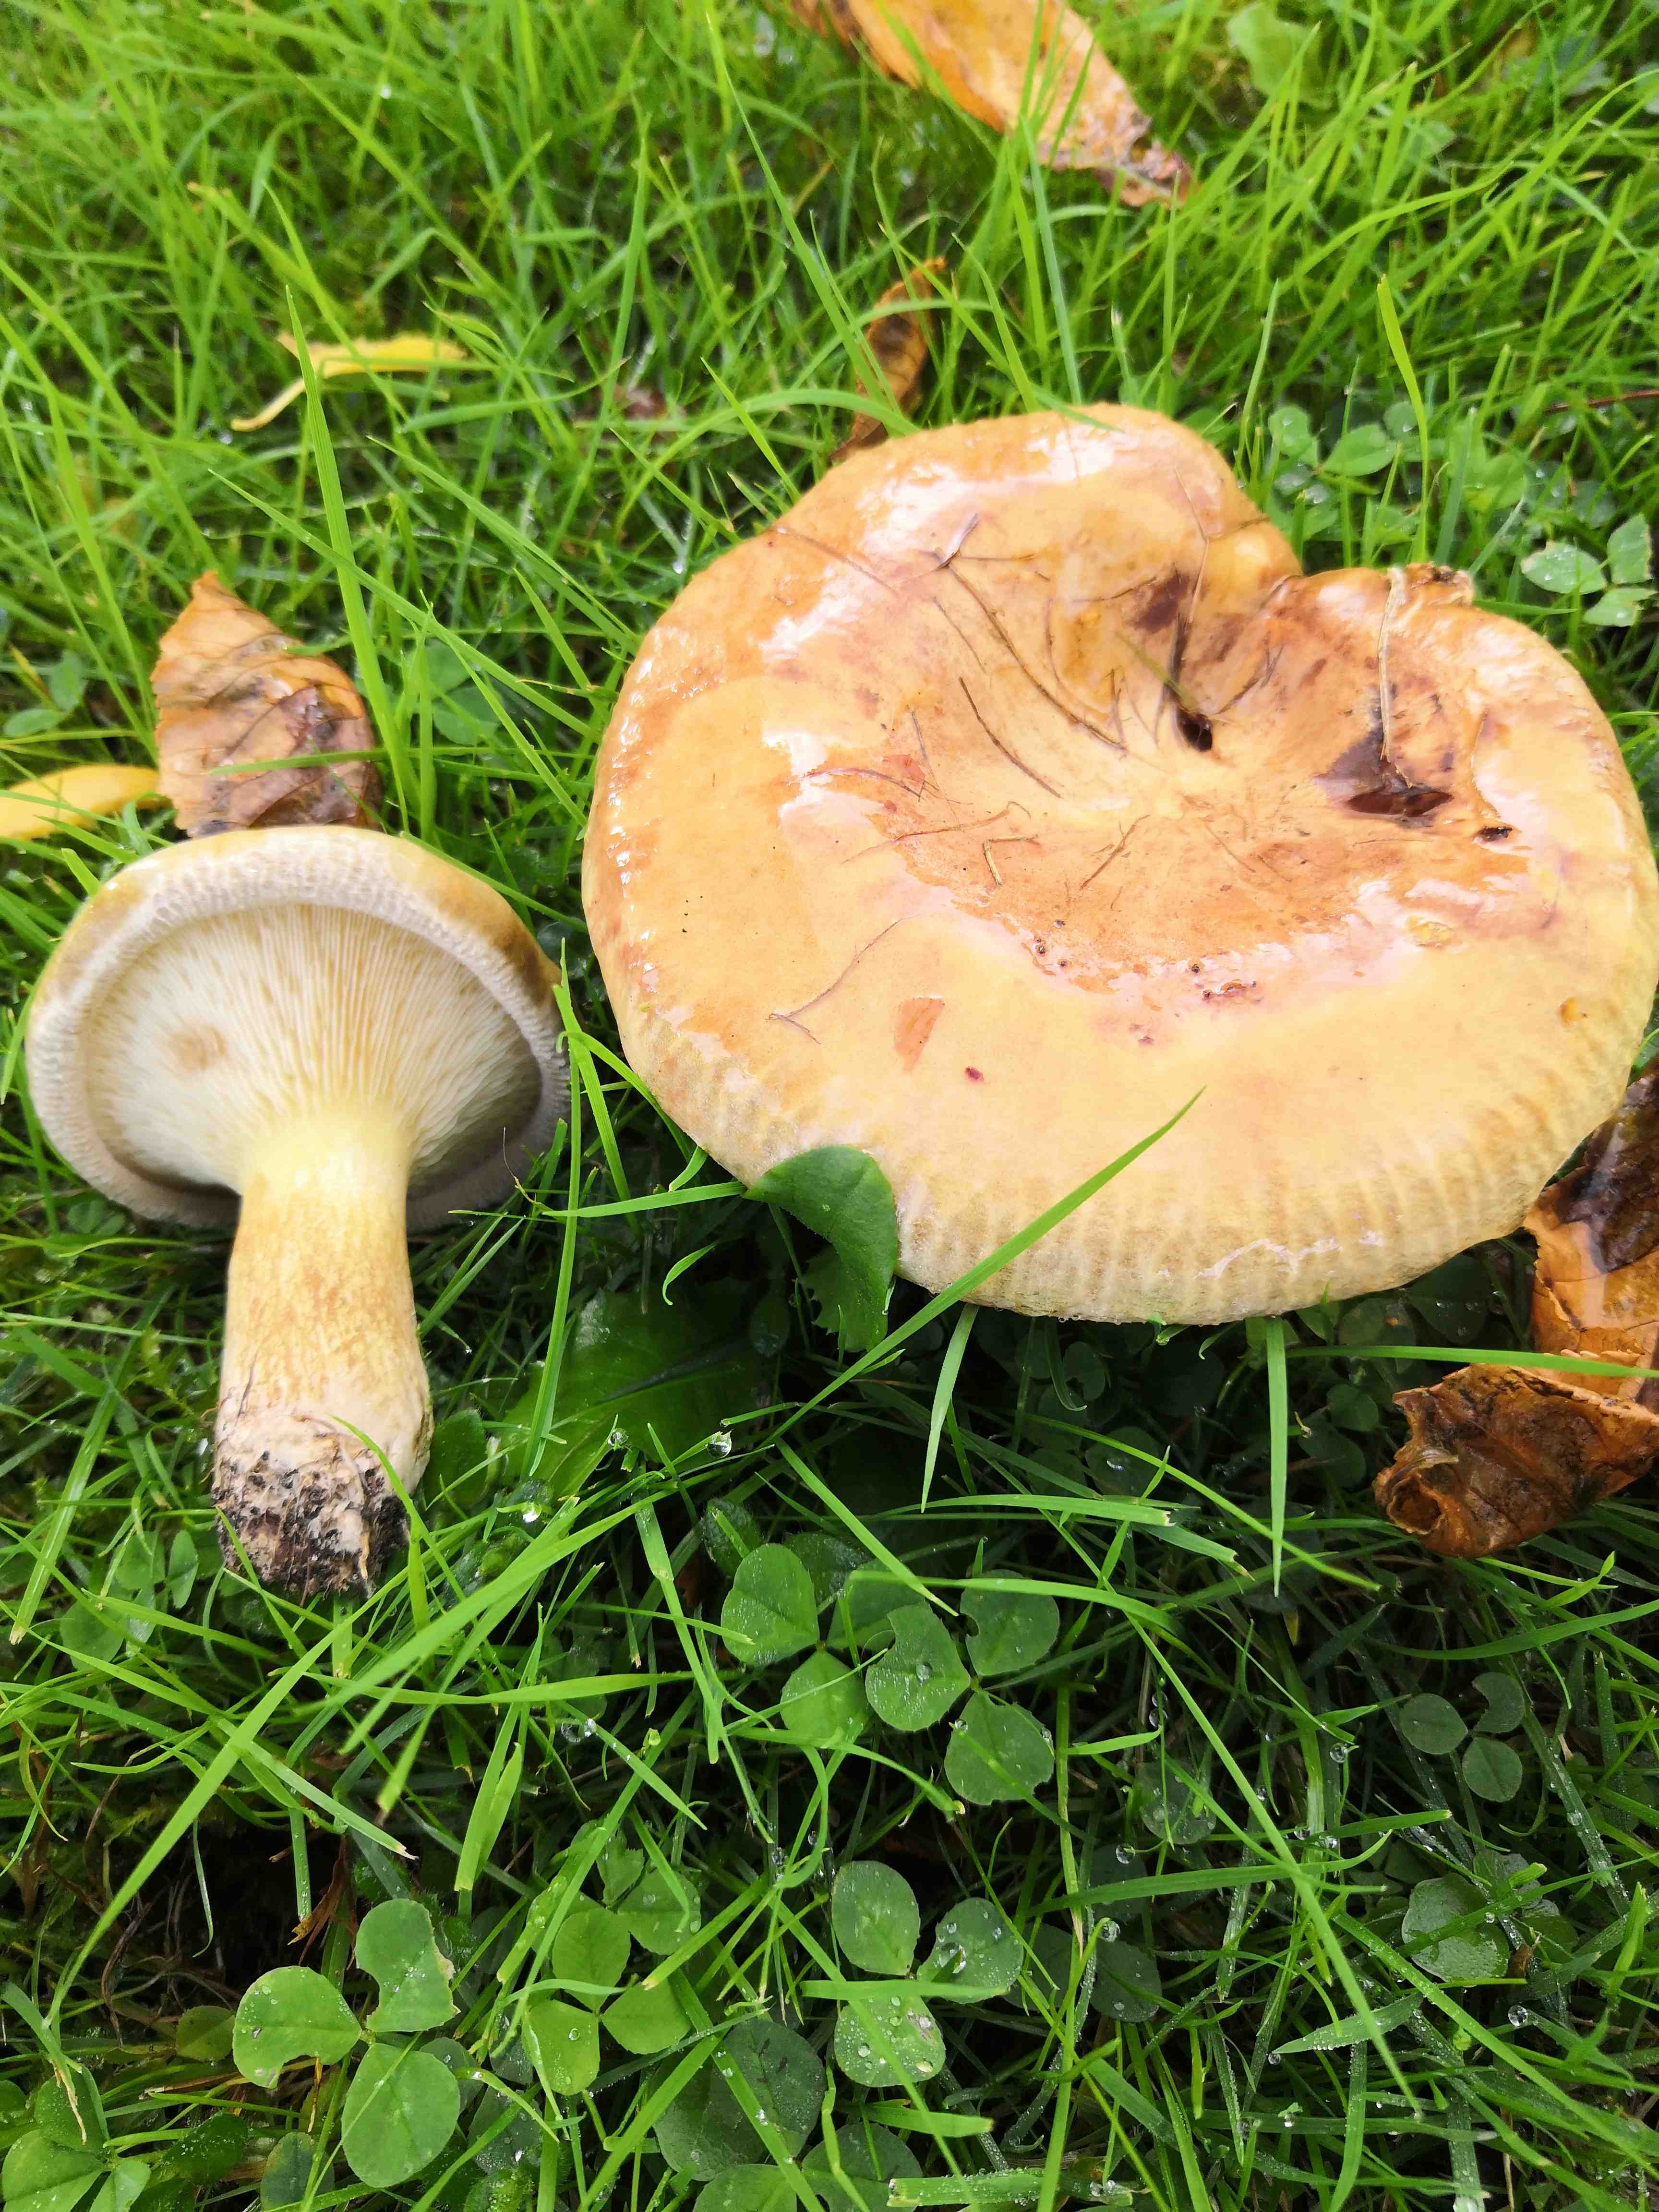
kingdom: Fungi
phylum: Basidiomycota
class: Agaricomycetes
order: Boletales
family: Paxillaceae
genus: Paxillus
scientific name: Paxillus
